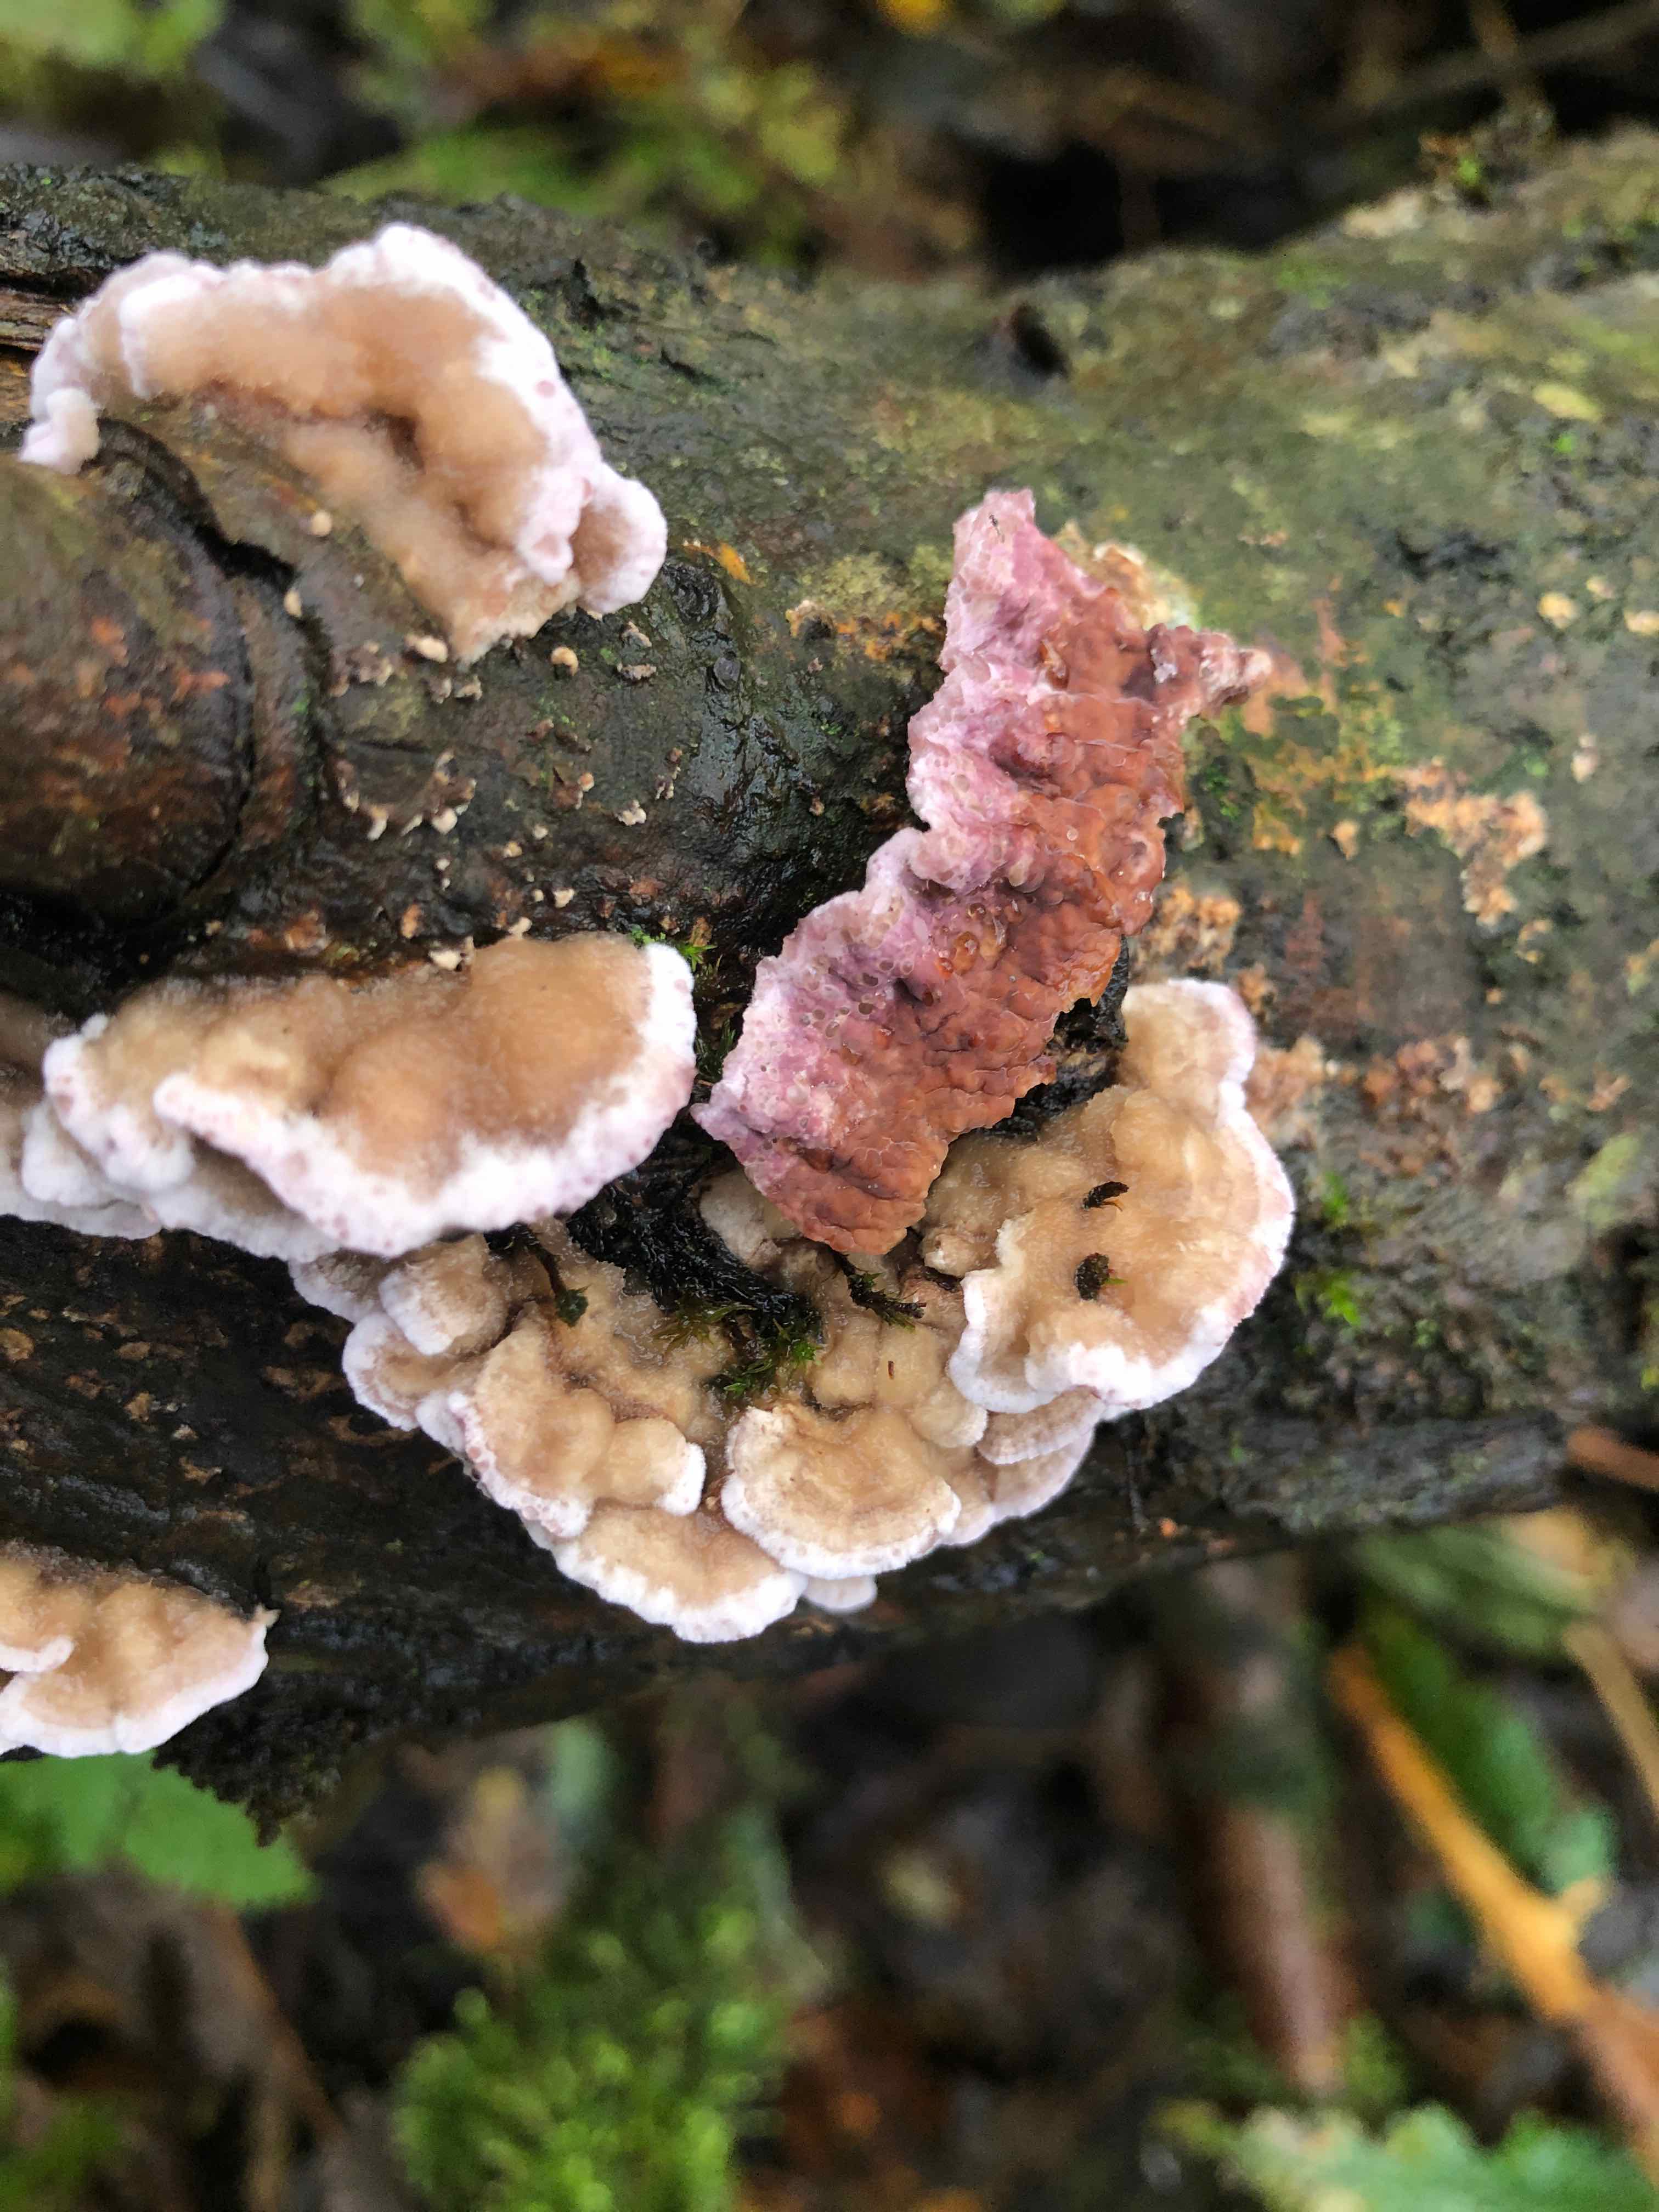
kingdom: Fungi
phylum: Basidiomycota
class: Agaricomycetes
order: Agaricales
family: Cyphellaceae
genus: Chondrostereum
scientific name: Chondrostereum purpureum
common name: purpurlædersvamp
